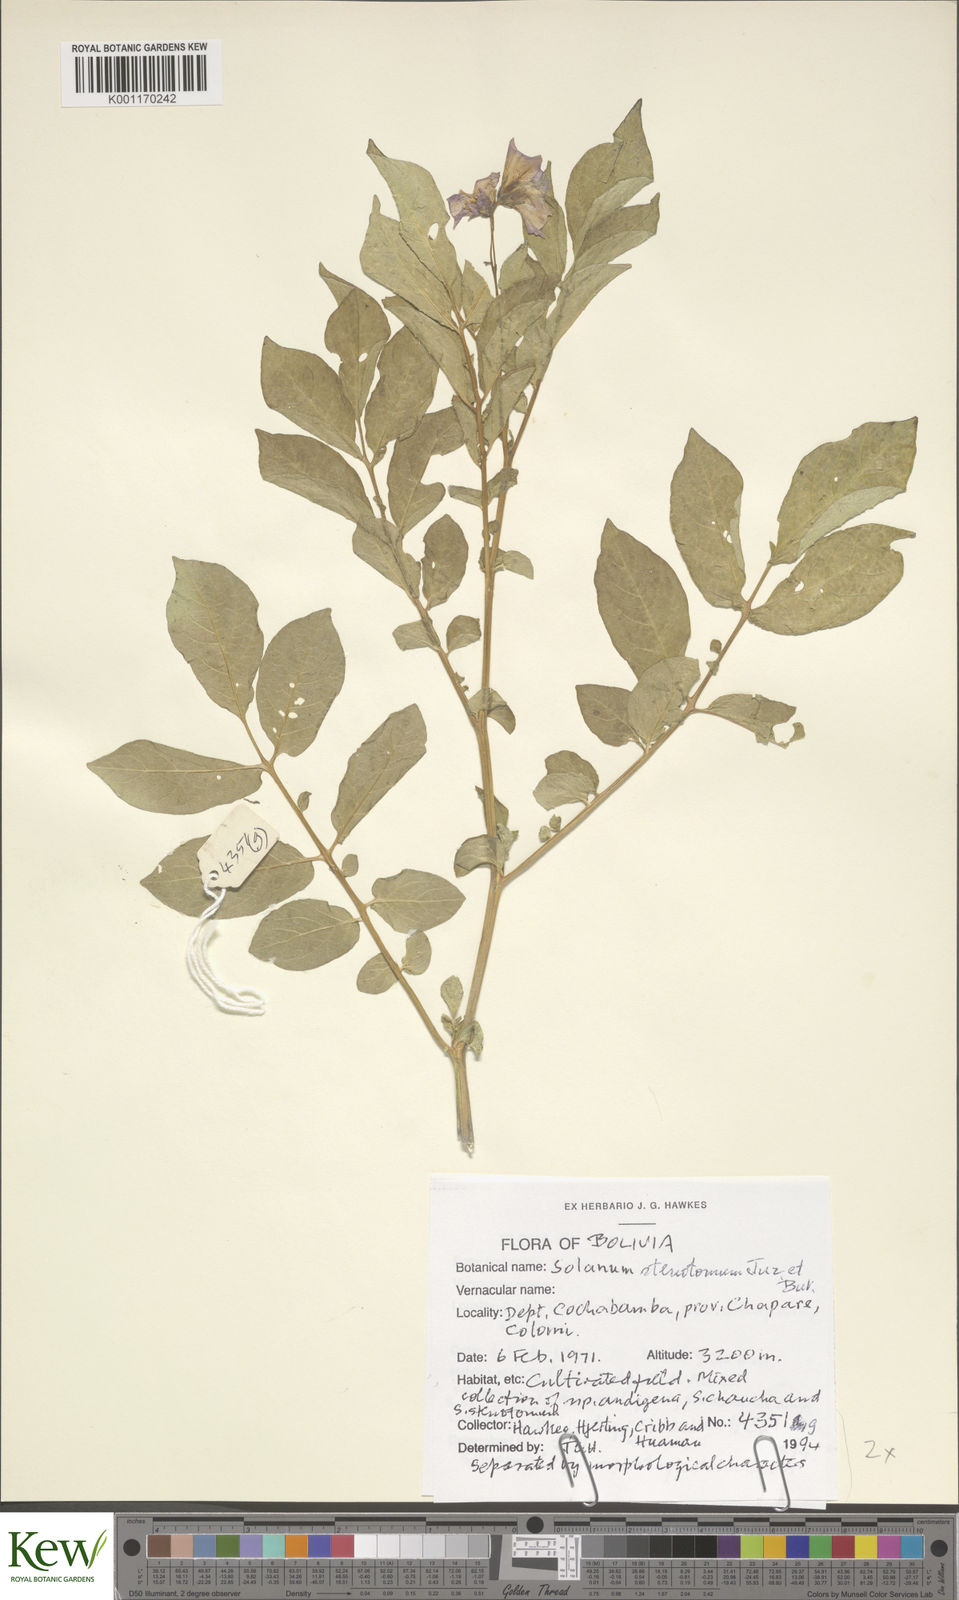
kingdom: Plantae
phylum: Tracheophyta
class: Magnoliopsida
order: Solanales
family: Solanaceae
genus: Solanum
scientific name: Solanum tuberosum
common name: Potato
